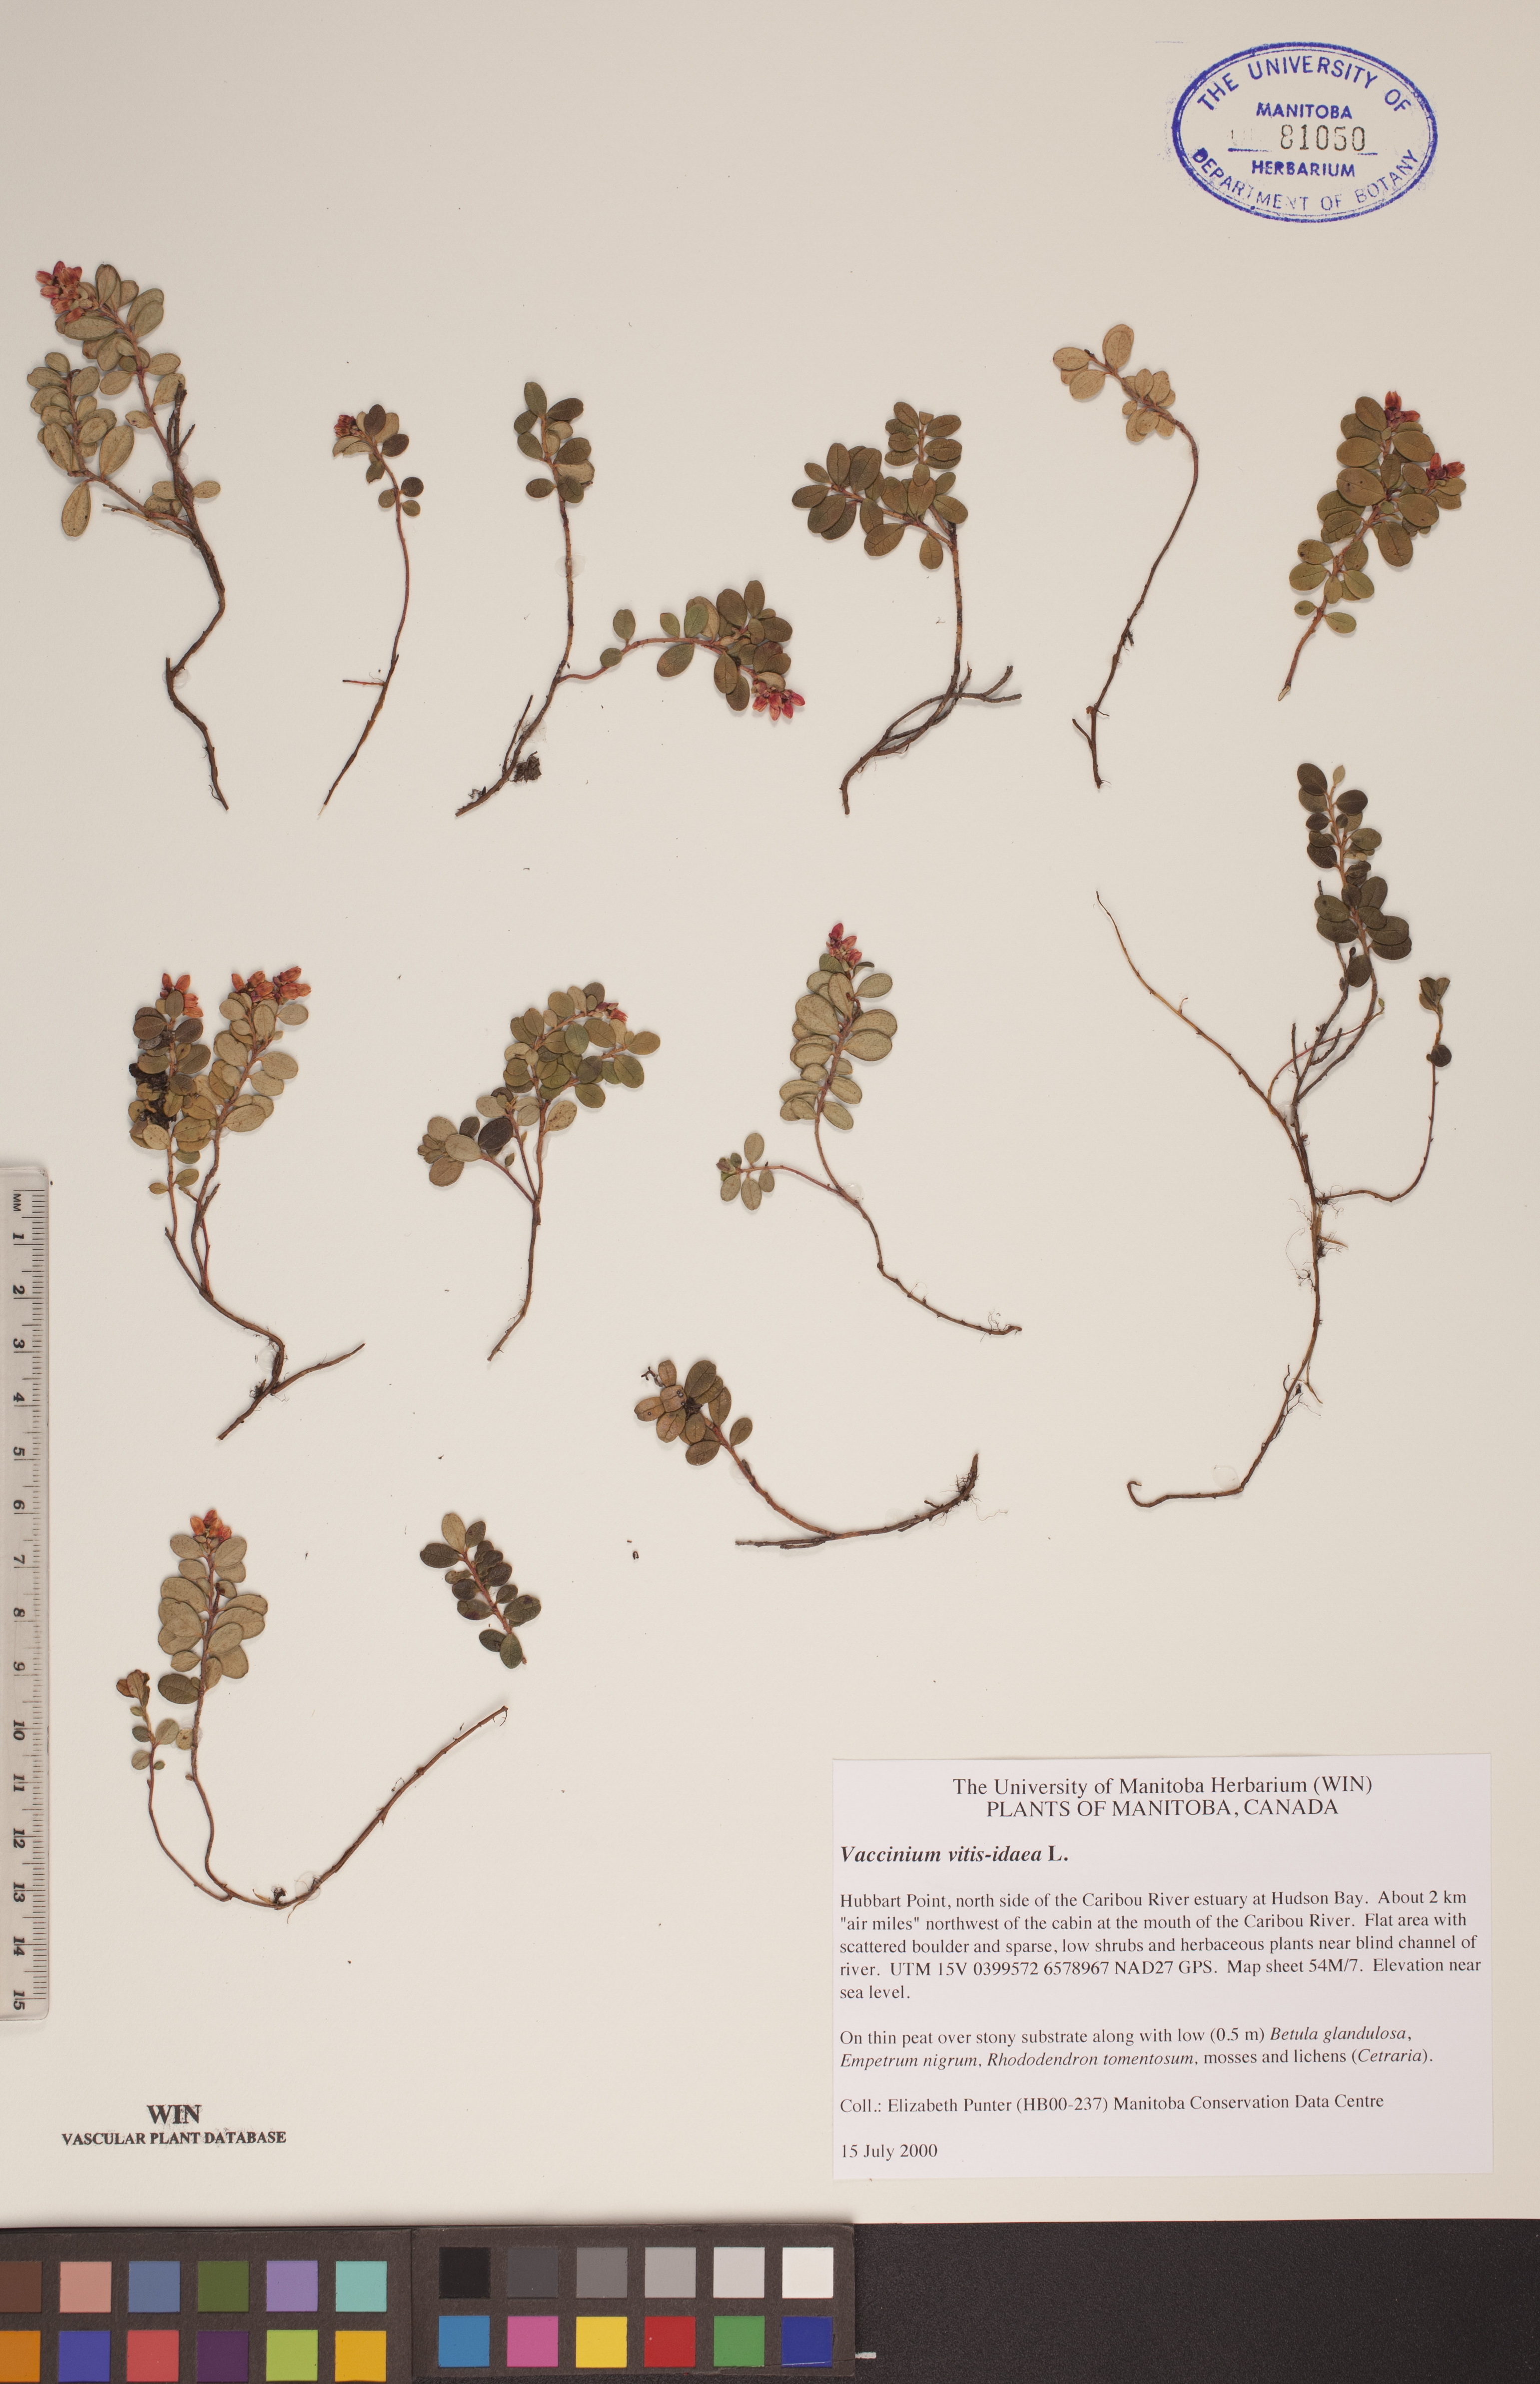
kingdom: Plantae
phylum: Tracheophyta
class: Magnoliopsida
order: Ericales
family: Ericaceae
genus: Vaccinium
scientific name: Vaccinium vitis-idaea
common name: Cowberry
